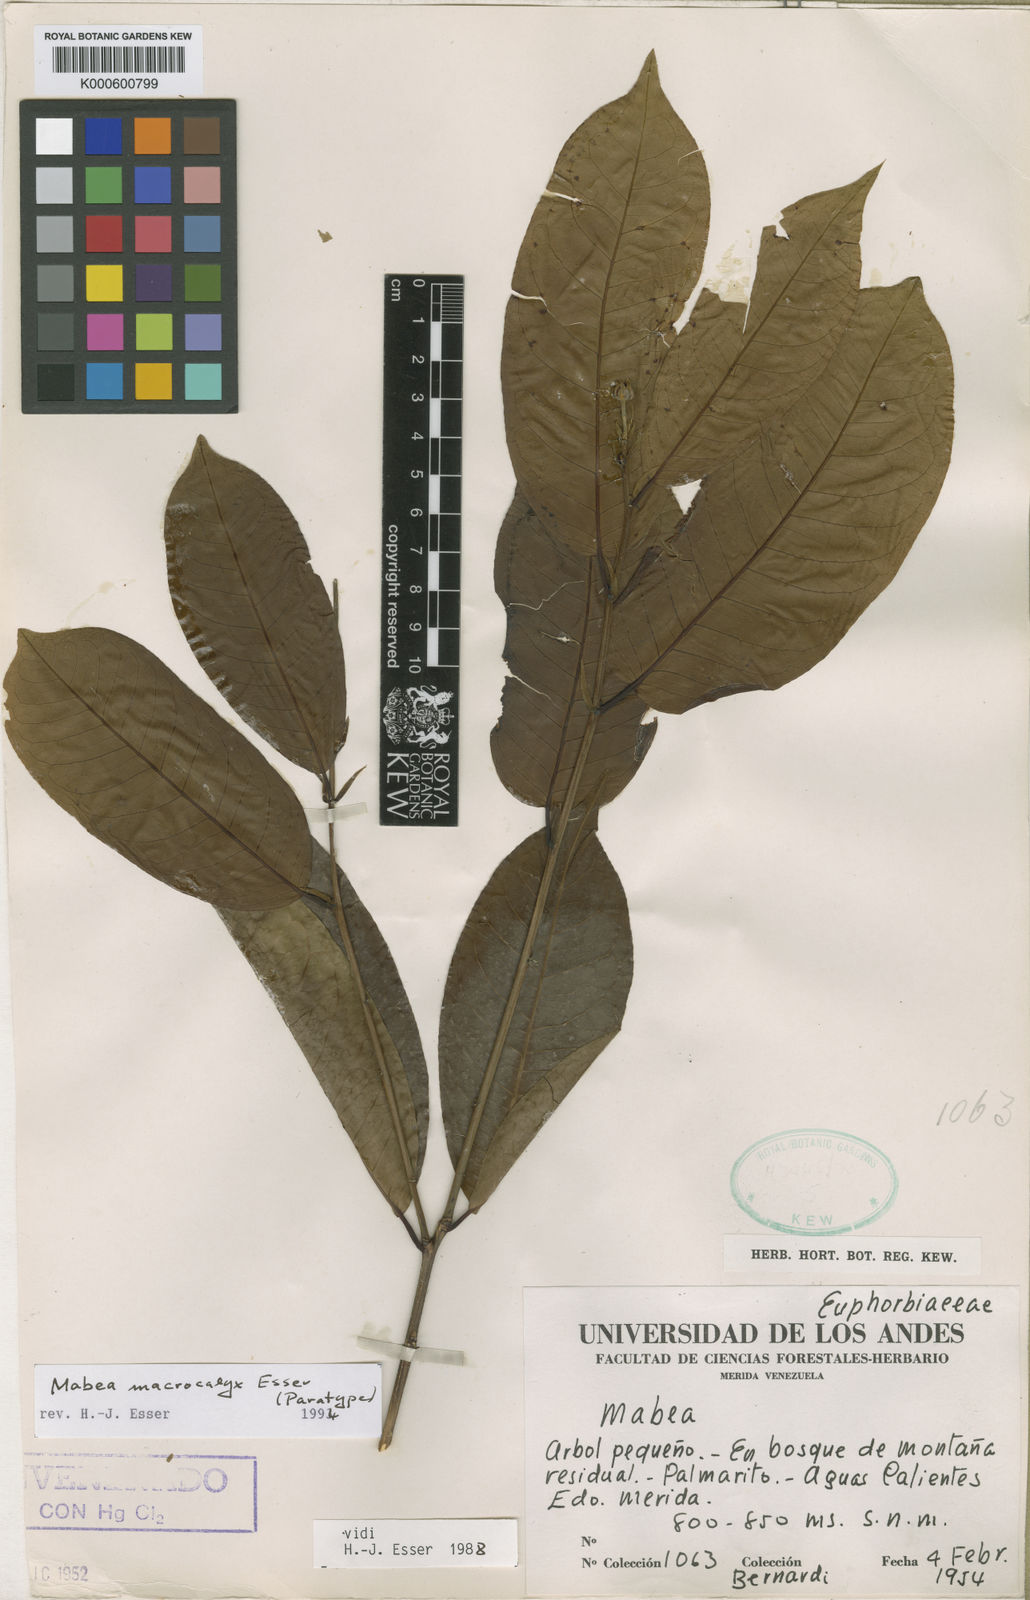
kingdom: Plantae
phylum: Tracheophyta
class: Magnoliopsida
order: Malpighiales
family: Euphorbiaceae
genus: Mabea
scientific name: Mabea macrocalyx
